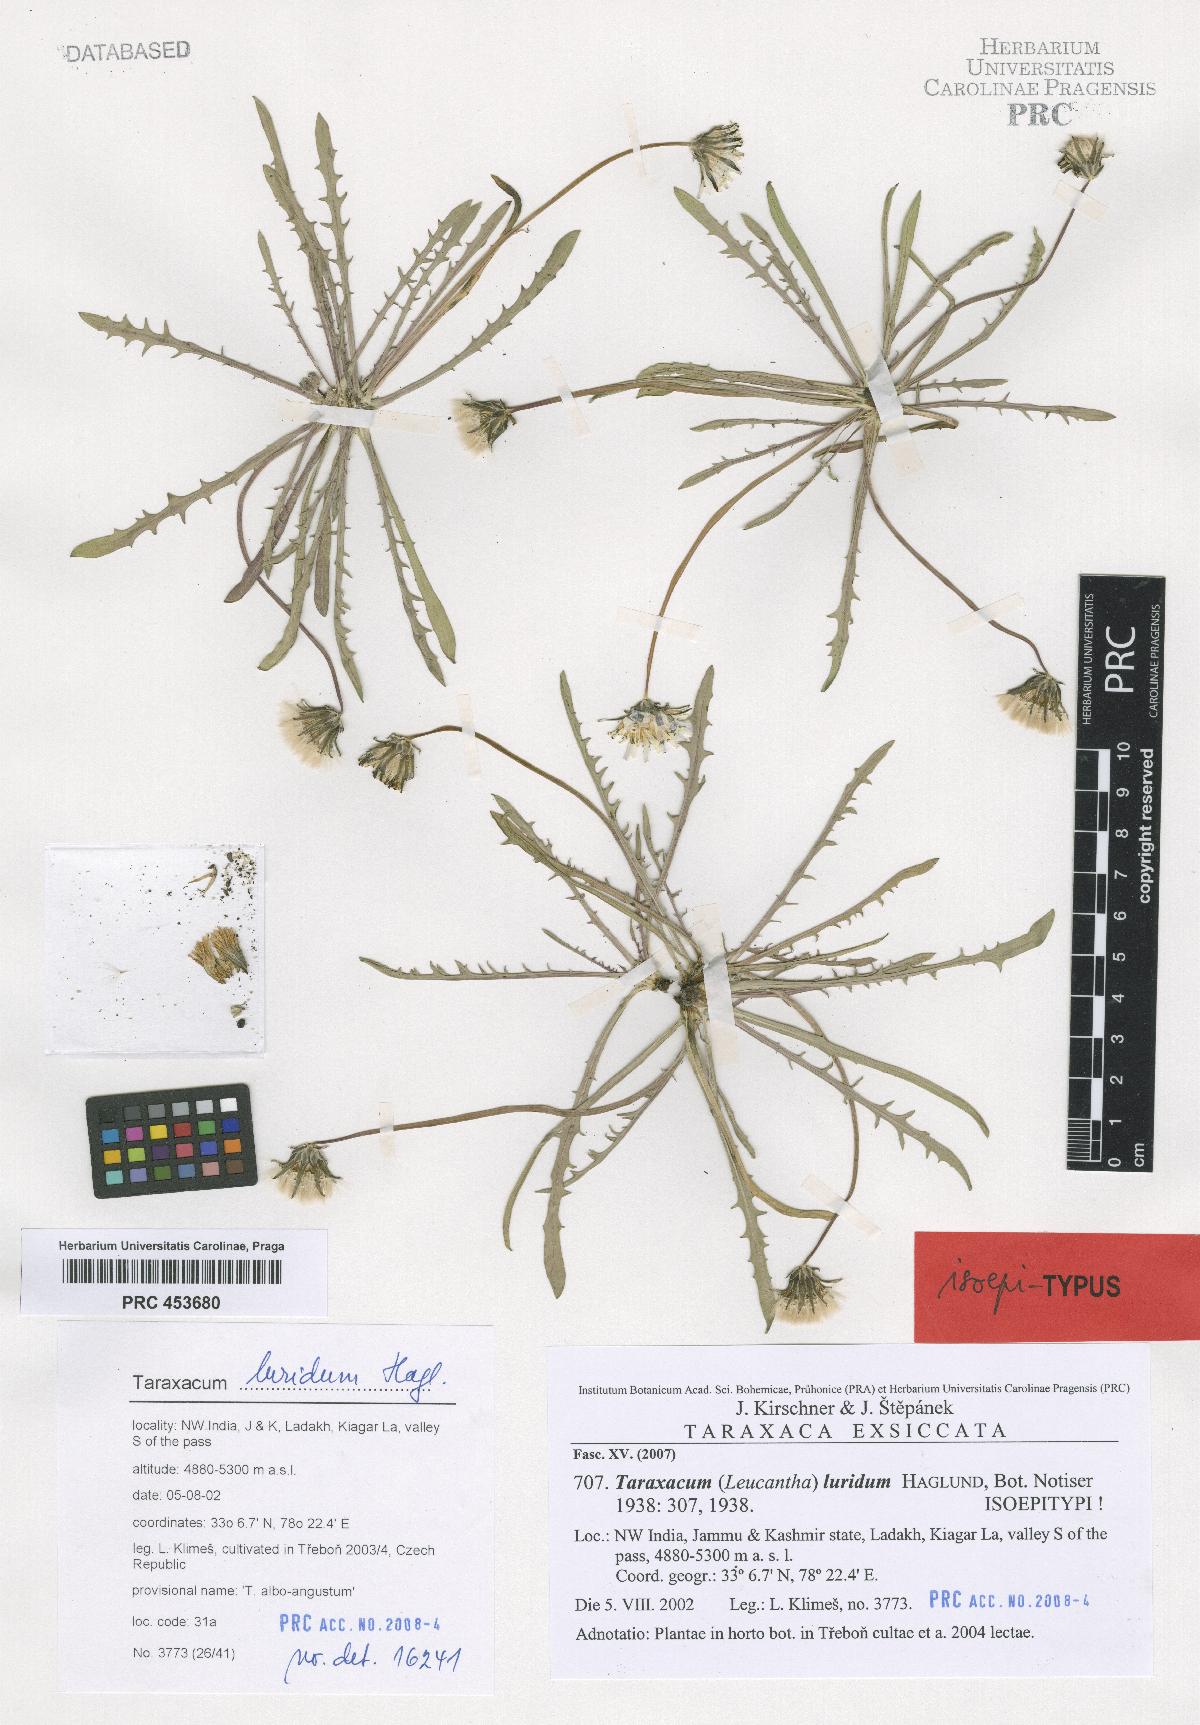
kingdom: Plantae
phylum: Tracheophyta
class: Magnoliopsida
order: Asterales
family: Asteraceae
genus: Taraxacum
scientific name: Taraxacum luridum
